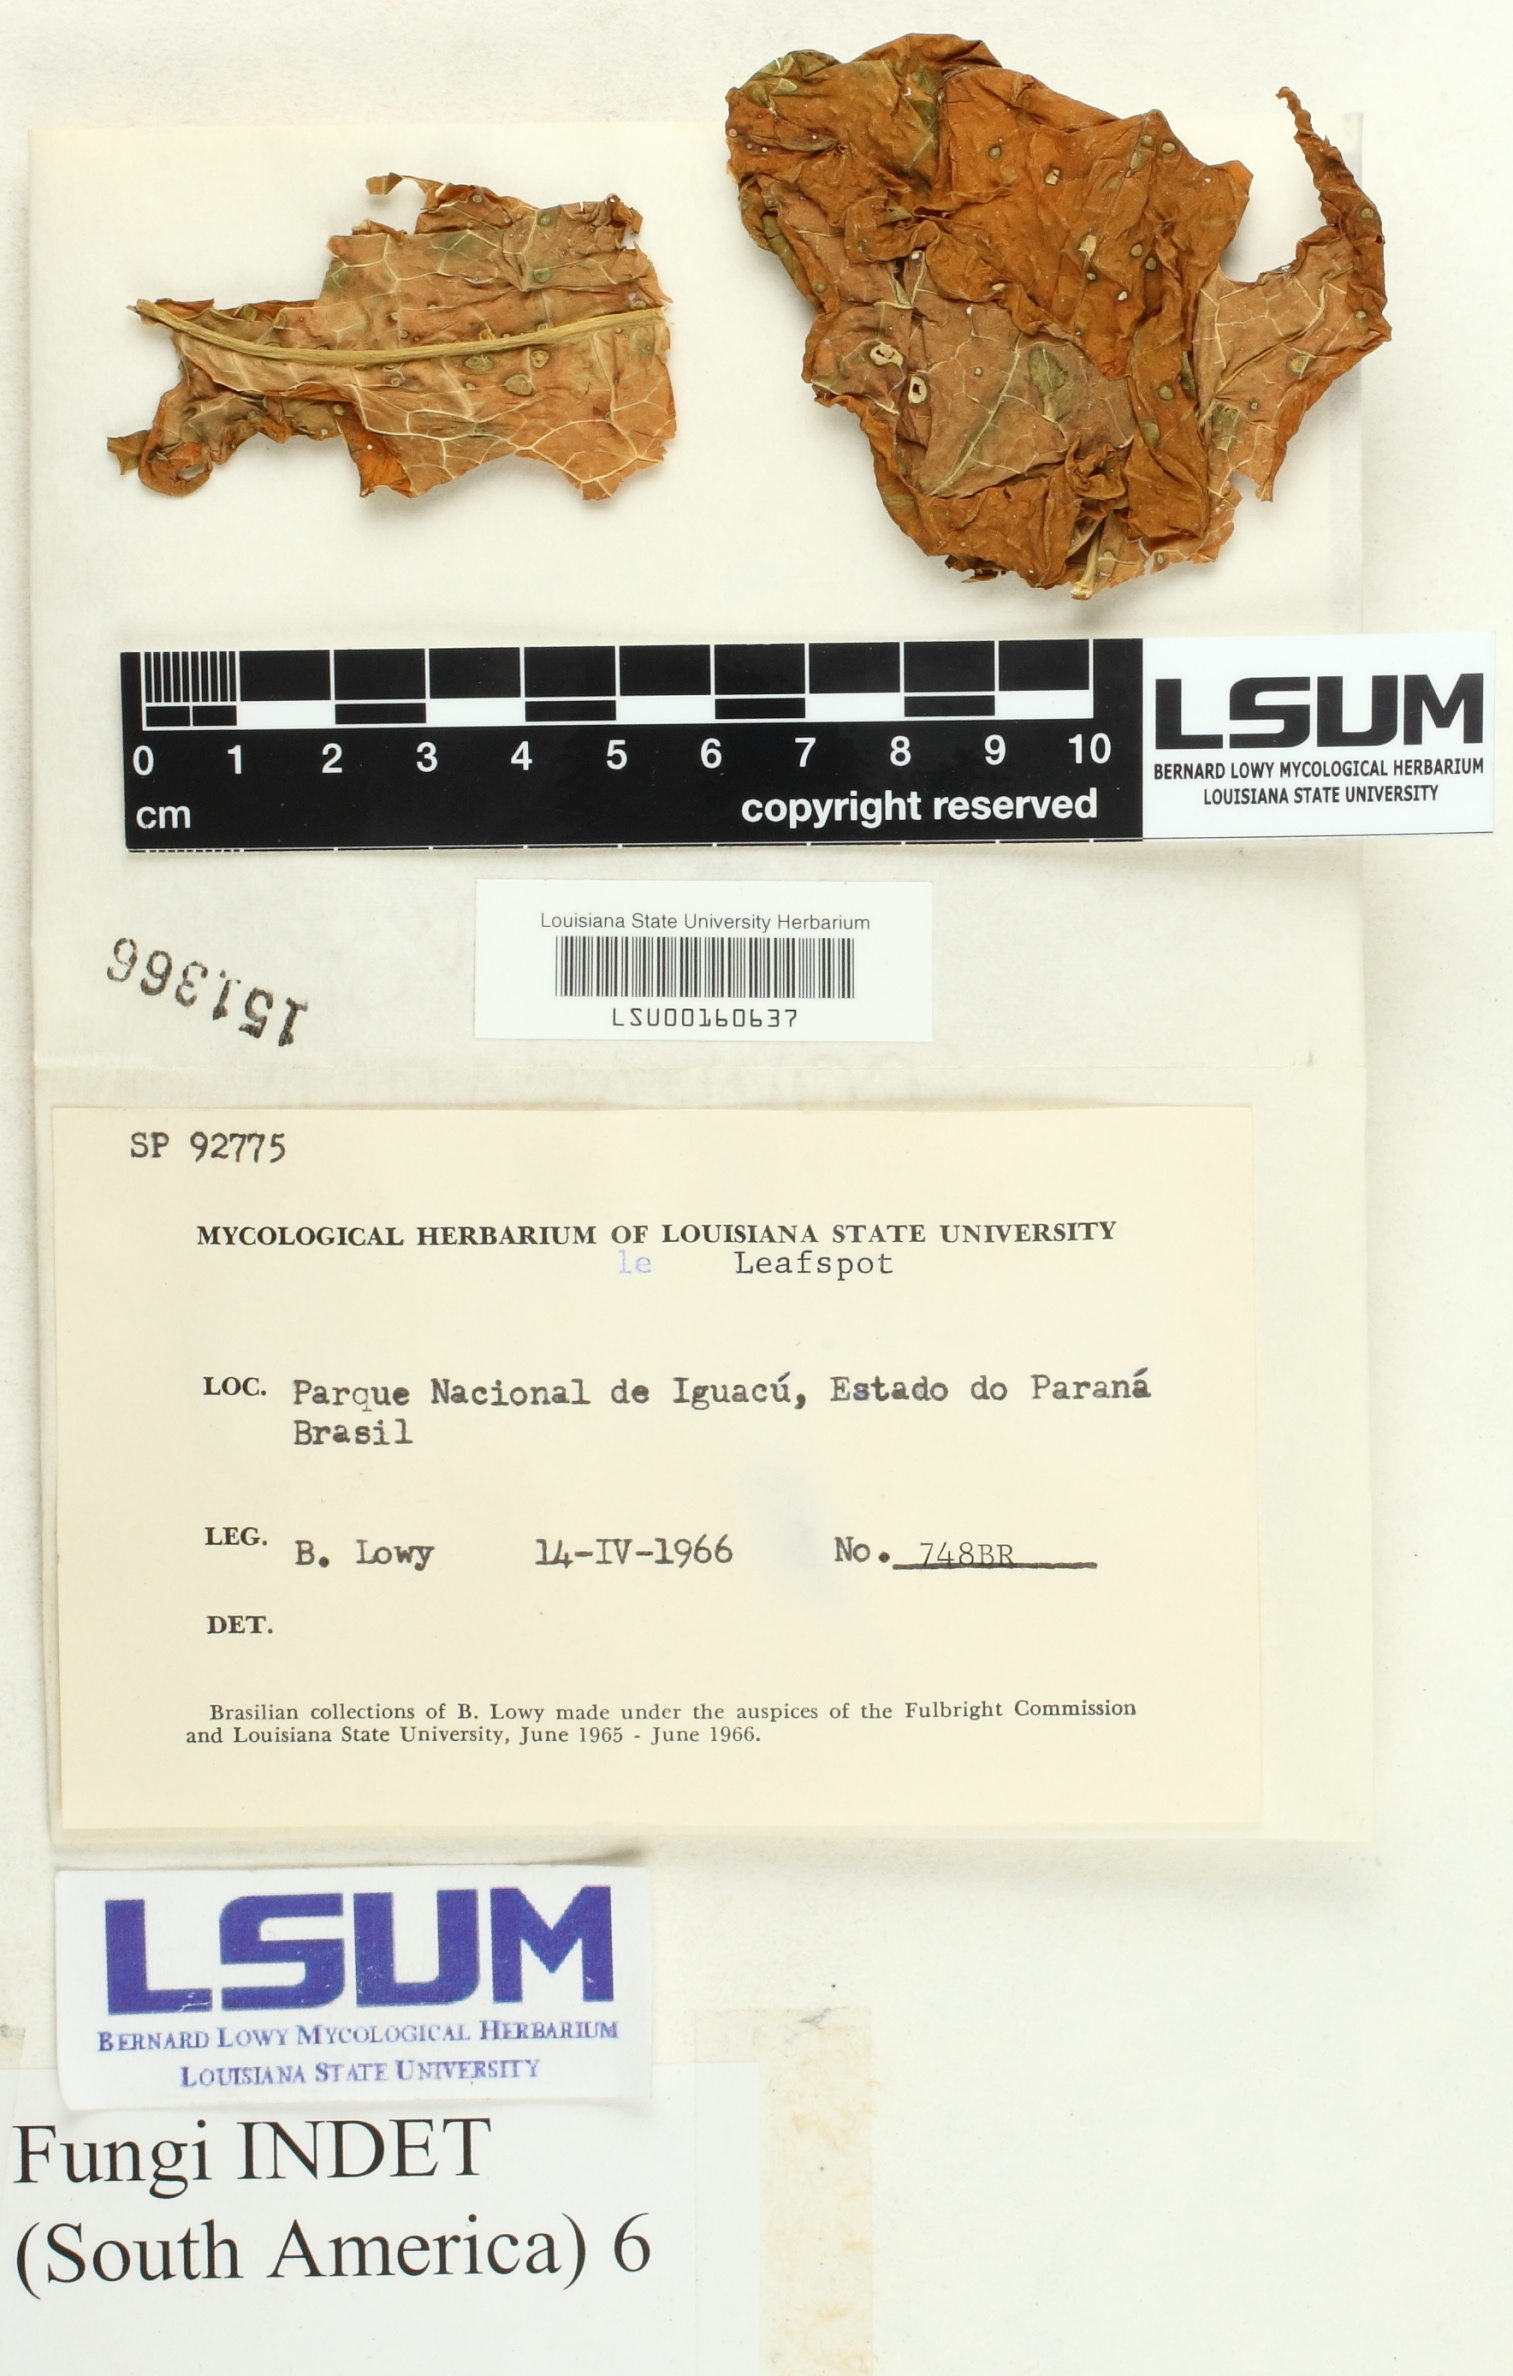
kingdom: Fungi
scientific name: Fungi
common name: Fungi
